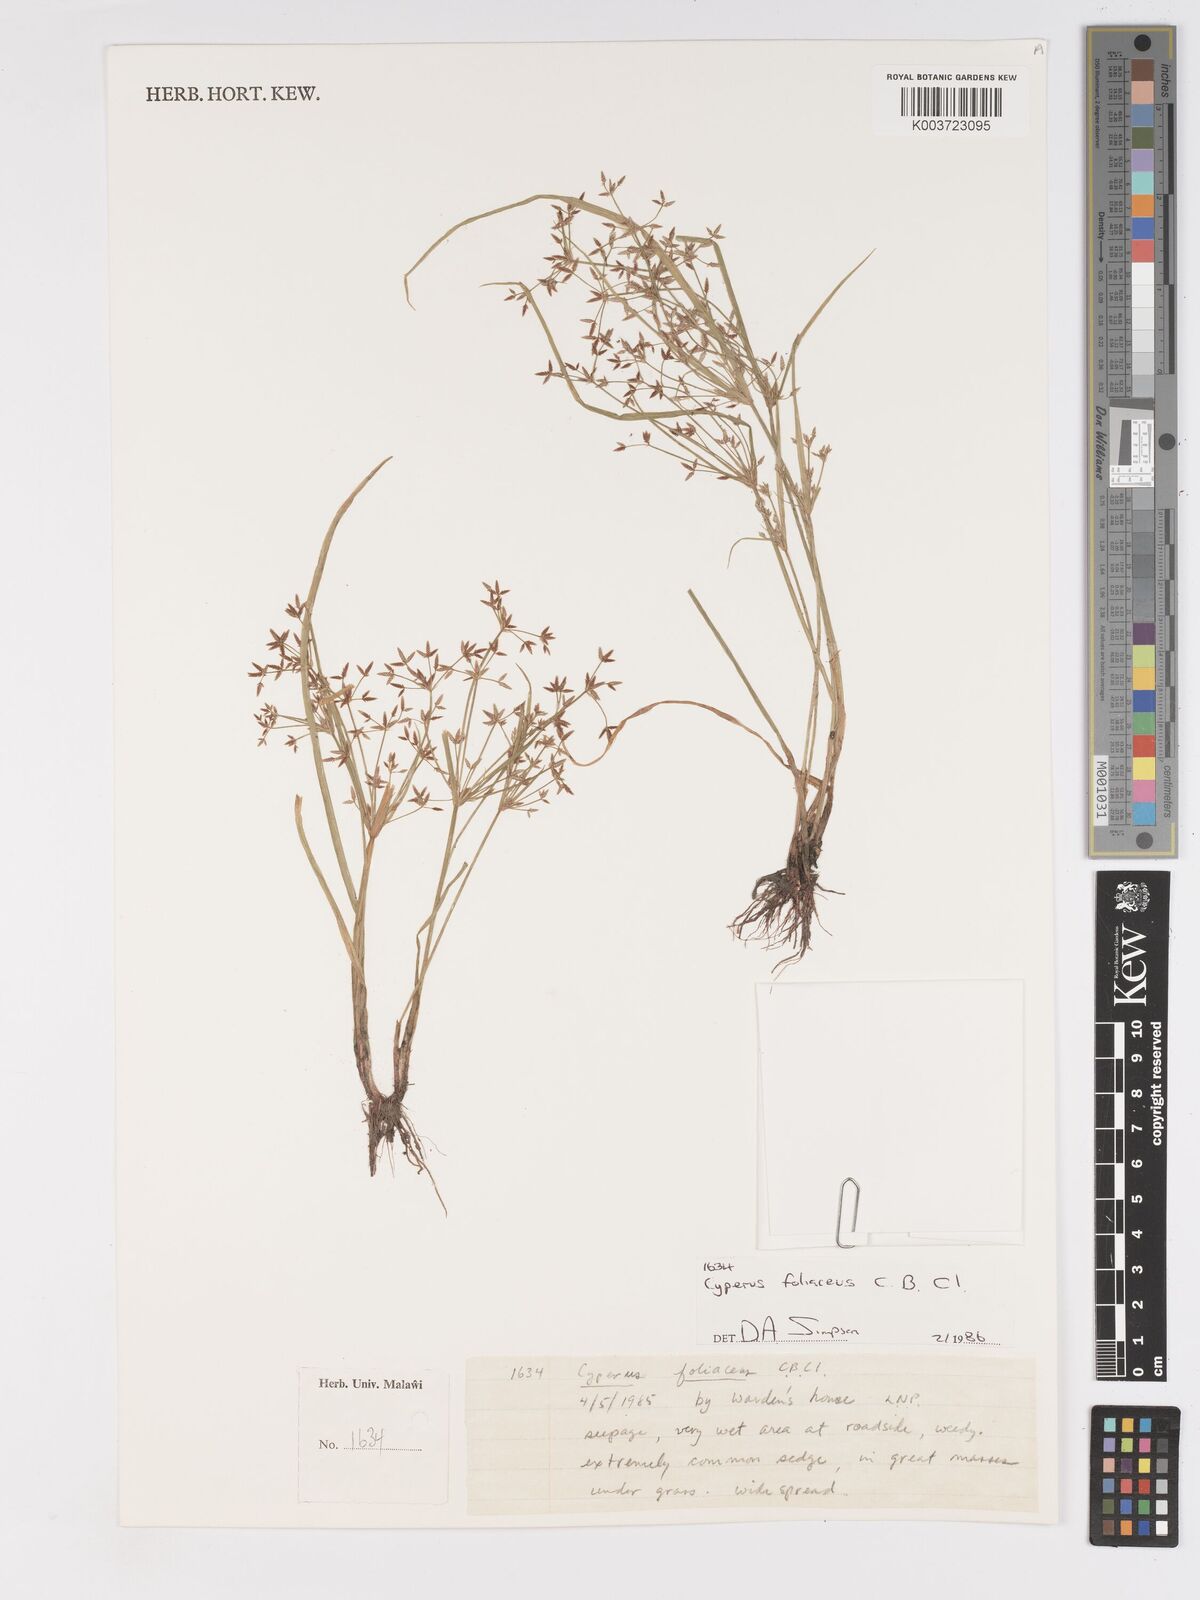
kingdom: Plantae
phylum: Tracheophyta
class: Liliopsida
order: Poales
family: Cyperaceae
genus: Cyperus
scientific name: Cyperus foliaceus
